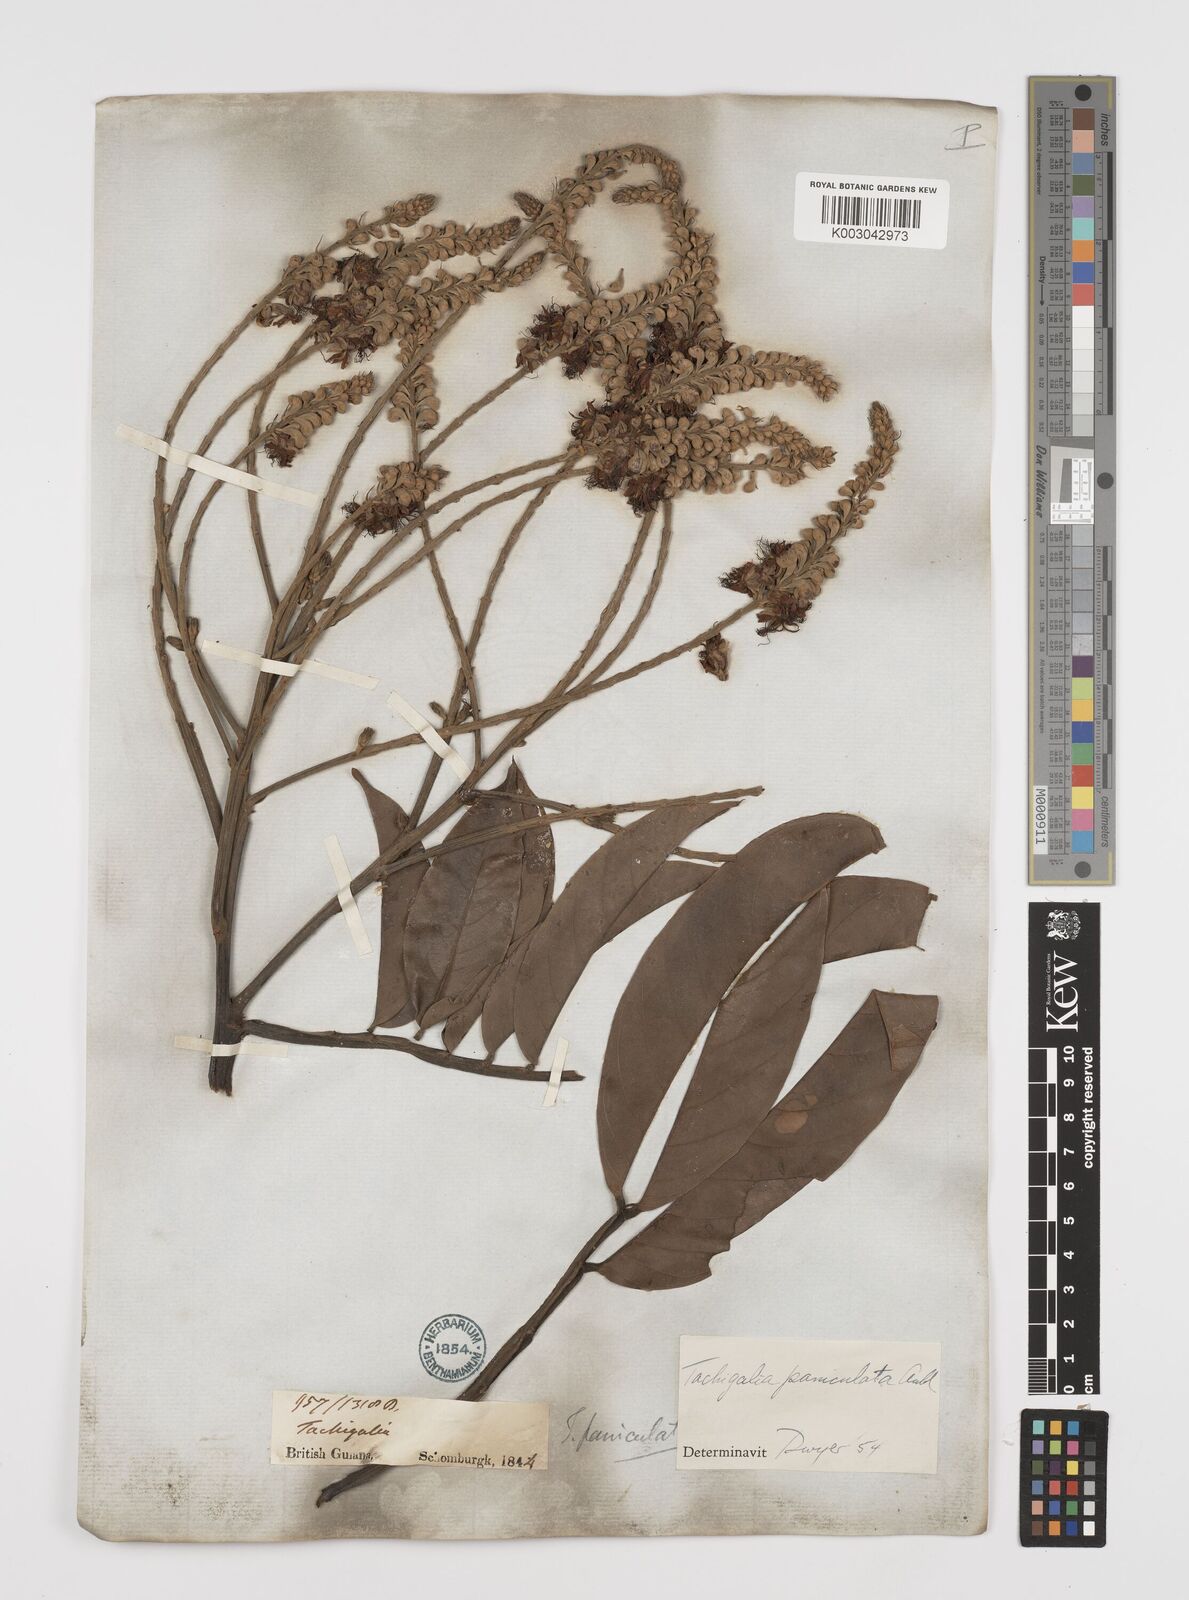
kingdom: Plantae
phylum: Tracheophyta
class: Magnoliopsida
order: Fabales
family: Fabaceae
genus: Tachigali
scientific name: Tachigali paniculata
